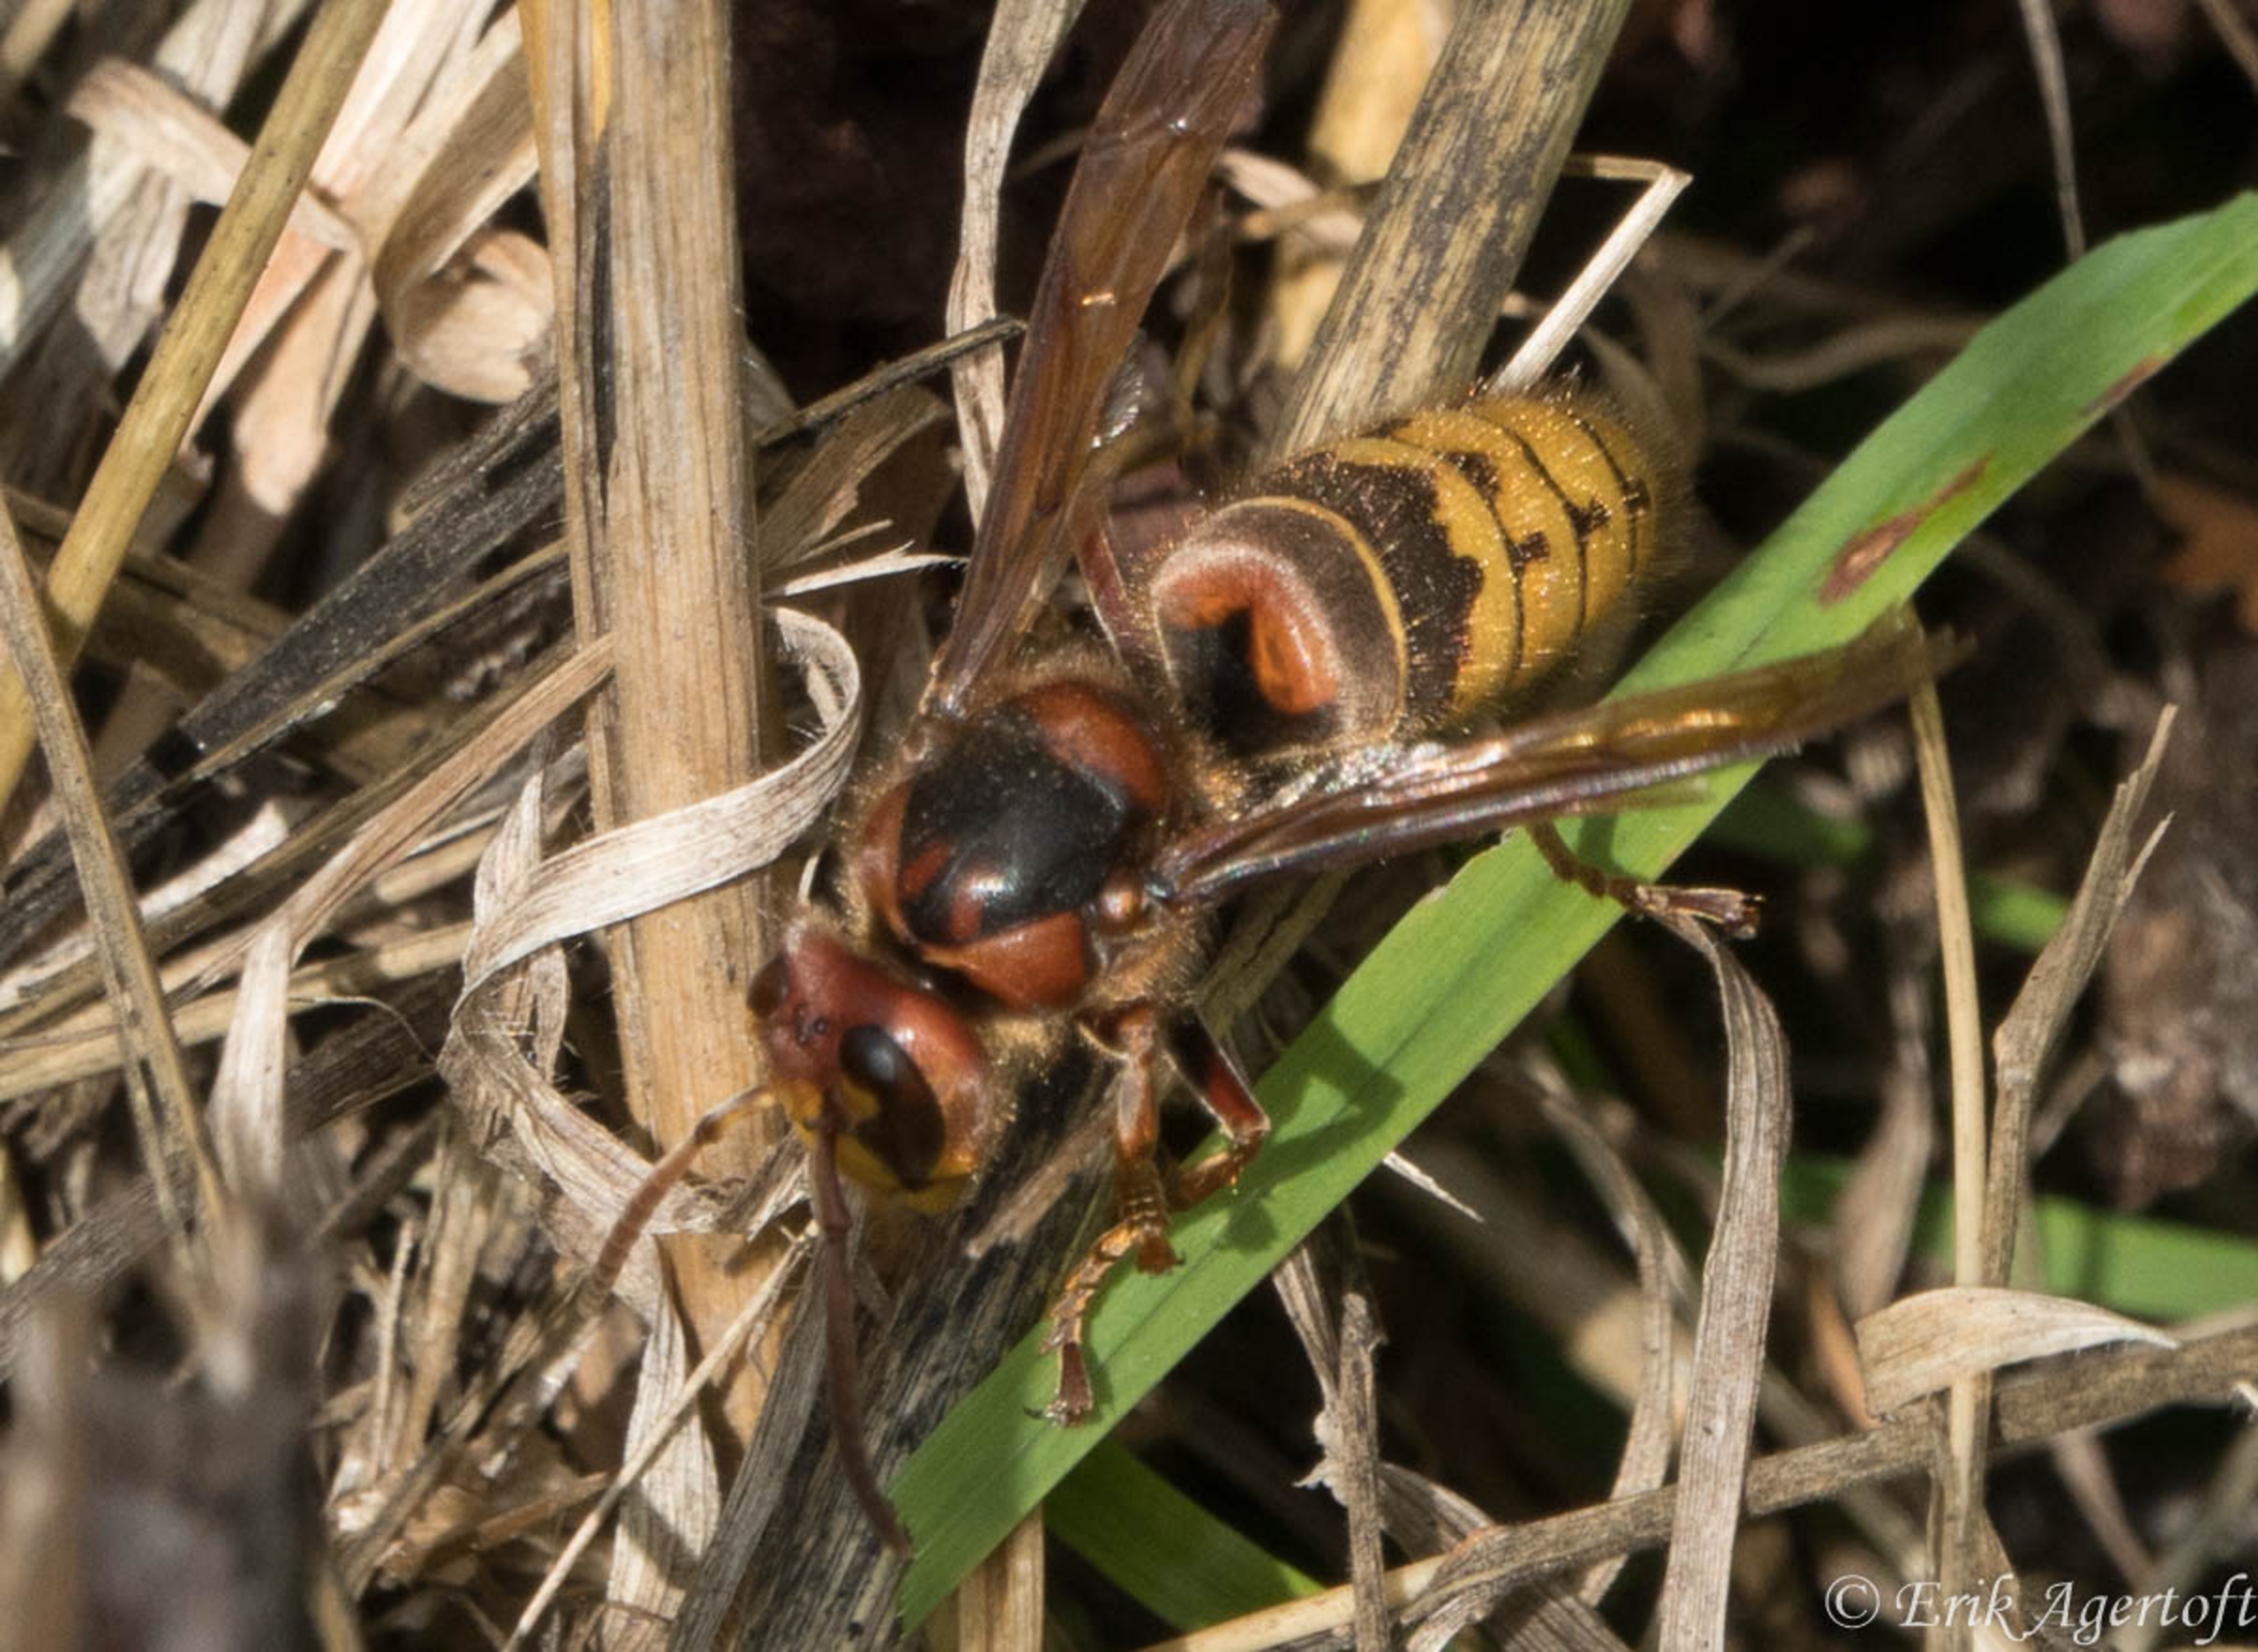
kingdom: Animalia
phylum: Arthropoda
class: Insecta
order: Hymenoptera
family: Vespidae
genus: Vespa
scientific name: Vespa crabro
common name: Stor gedehams
